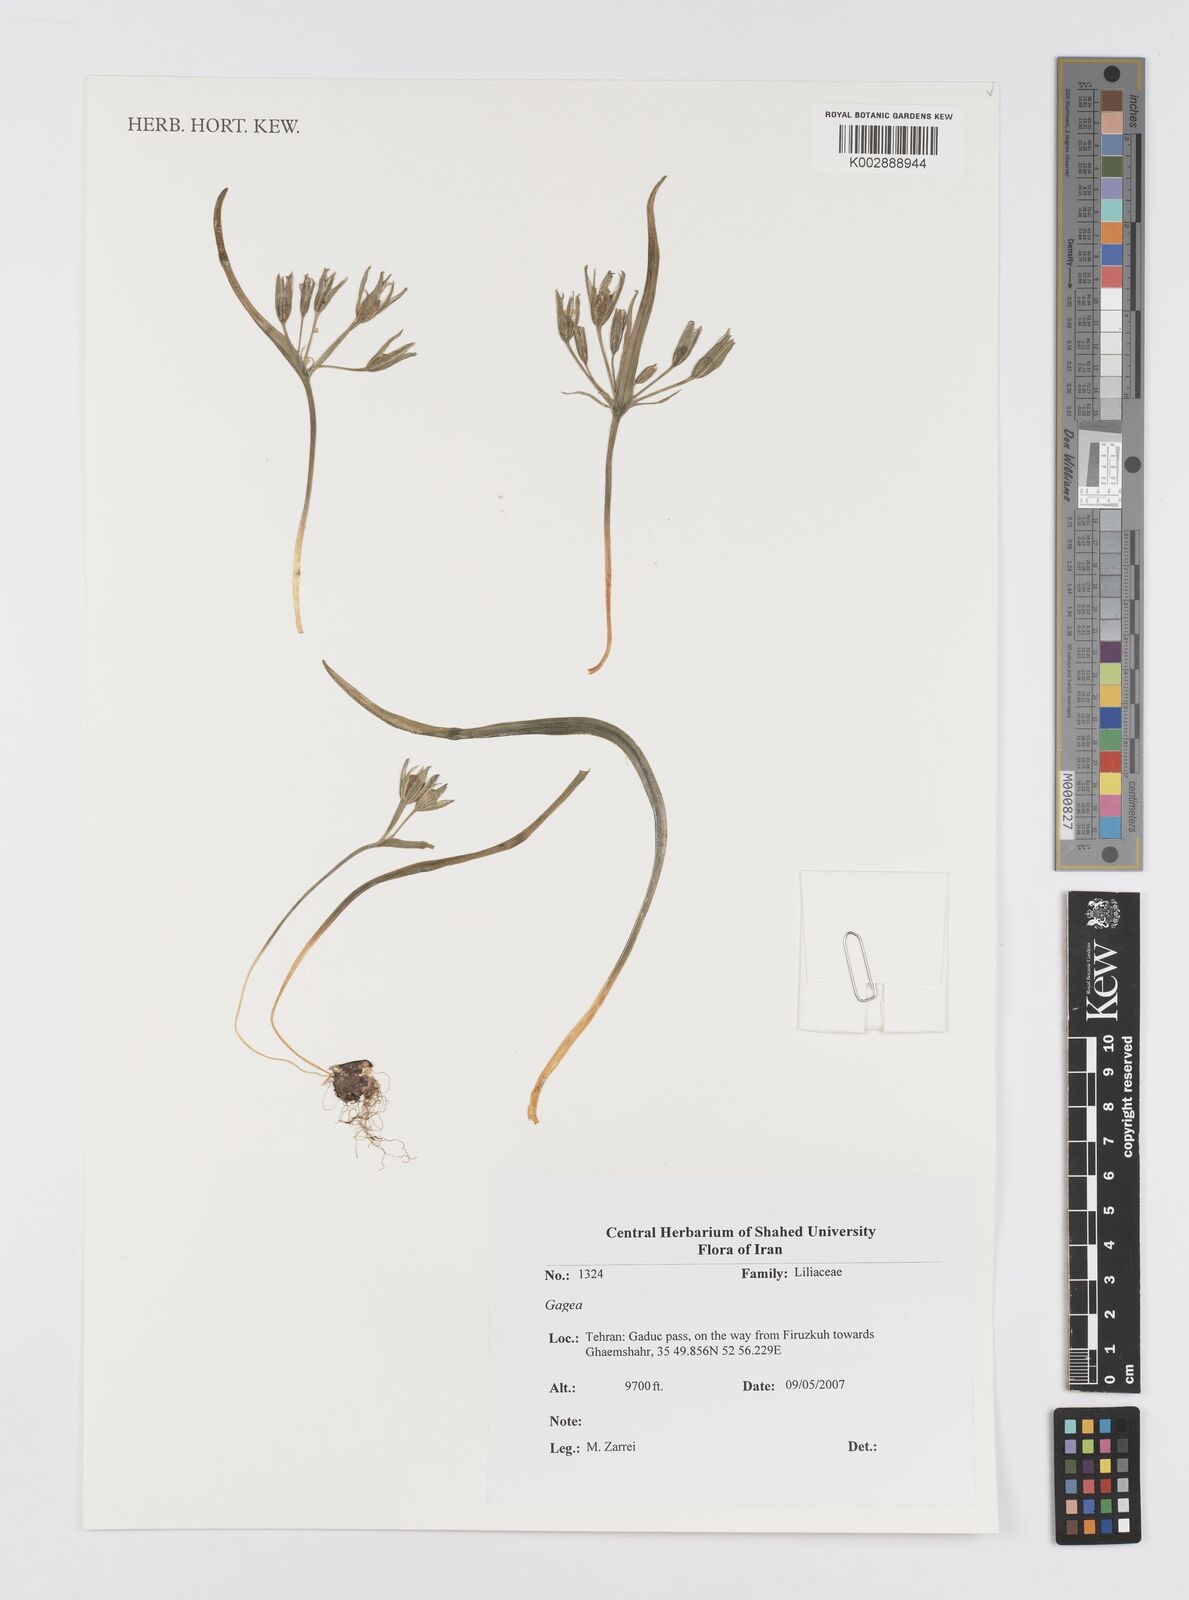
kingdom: Plantae
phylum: Tracheophyta
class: Liliopsida
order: Liliales
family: Liliaceae
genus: Gagea
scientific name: Gagea
